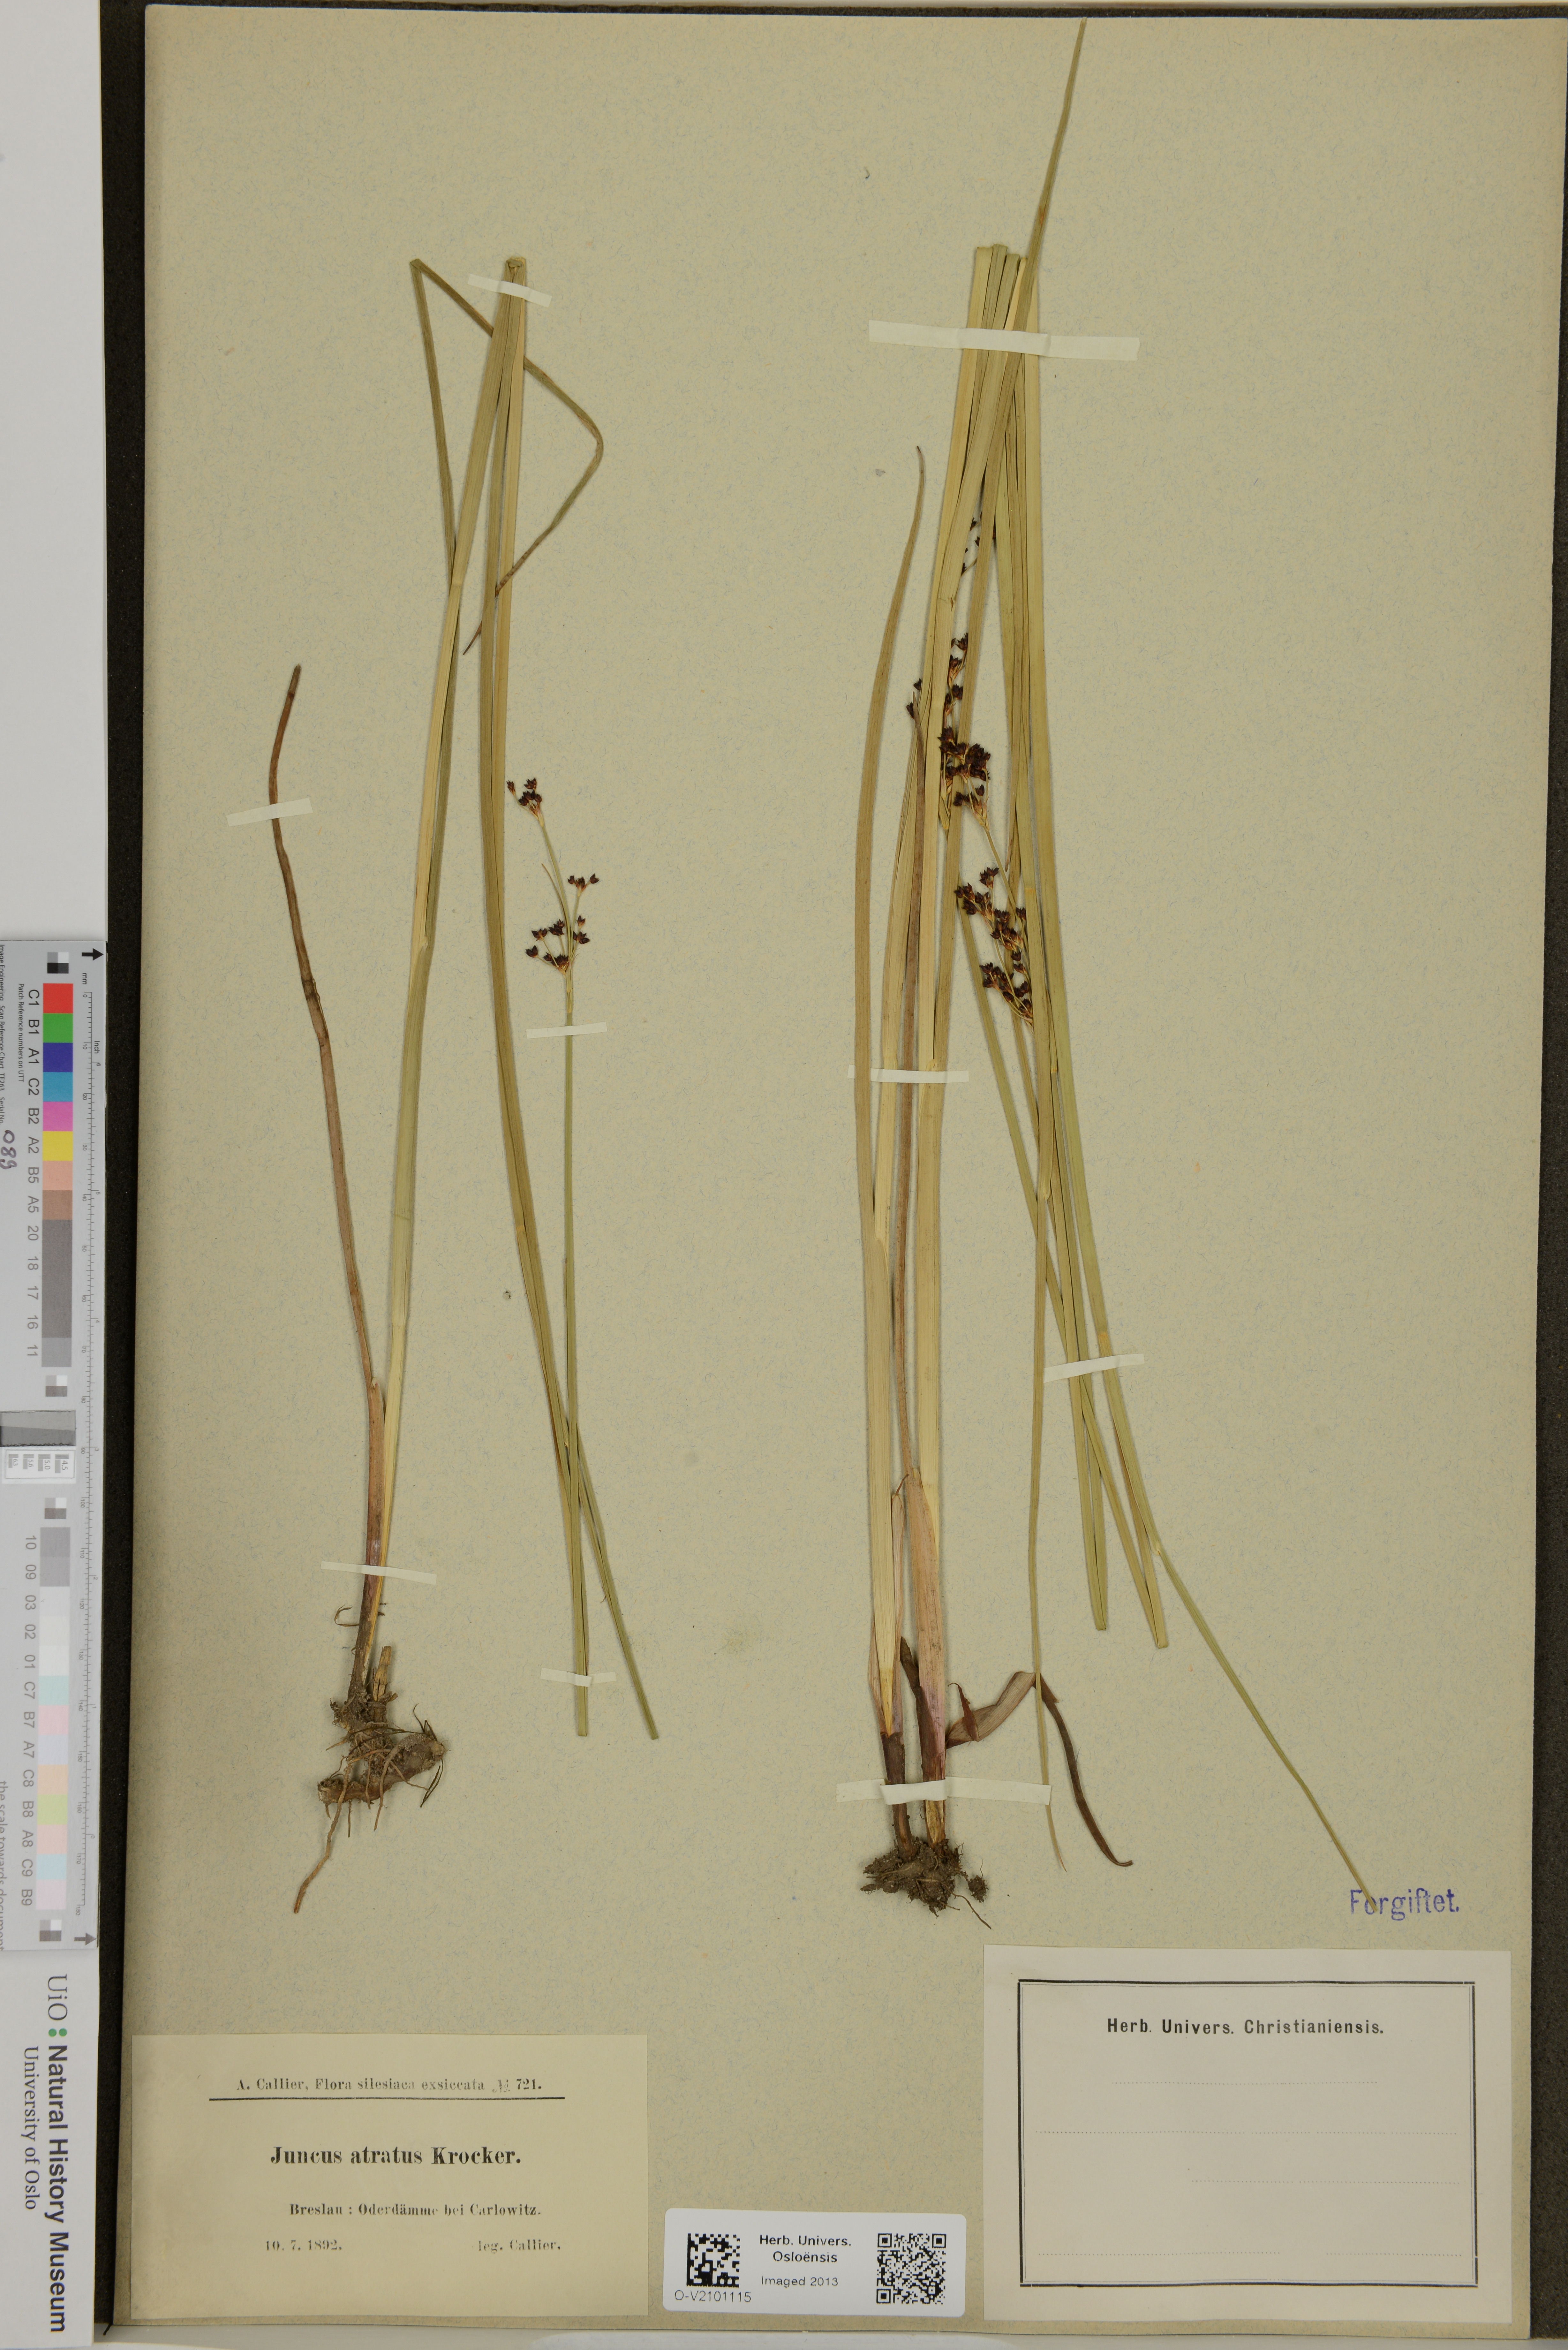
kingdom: Plantae
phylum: Tracheophyta
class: Liliopsida
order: Poales
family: Juncaceae
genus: Juncus
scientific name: Juncus atratus
